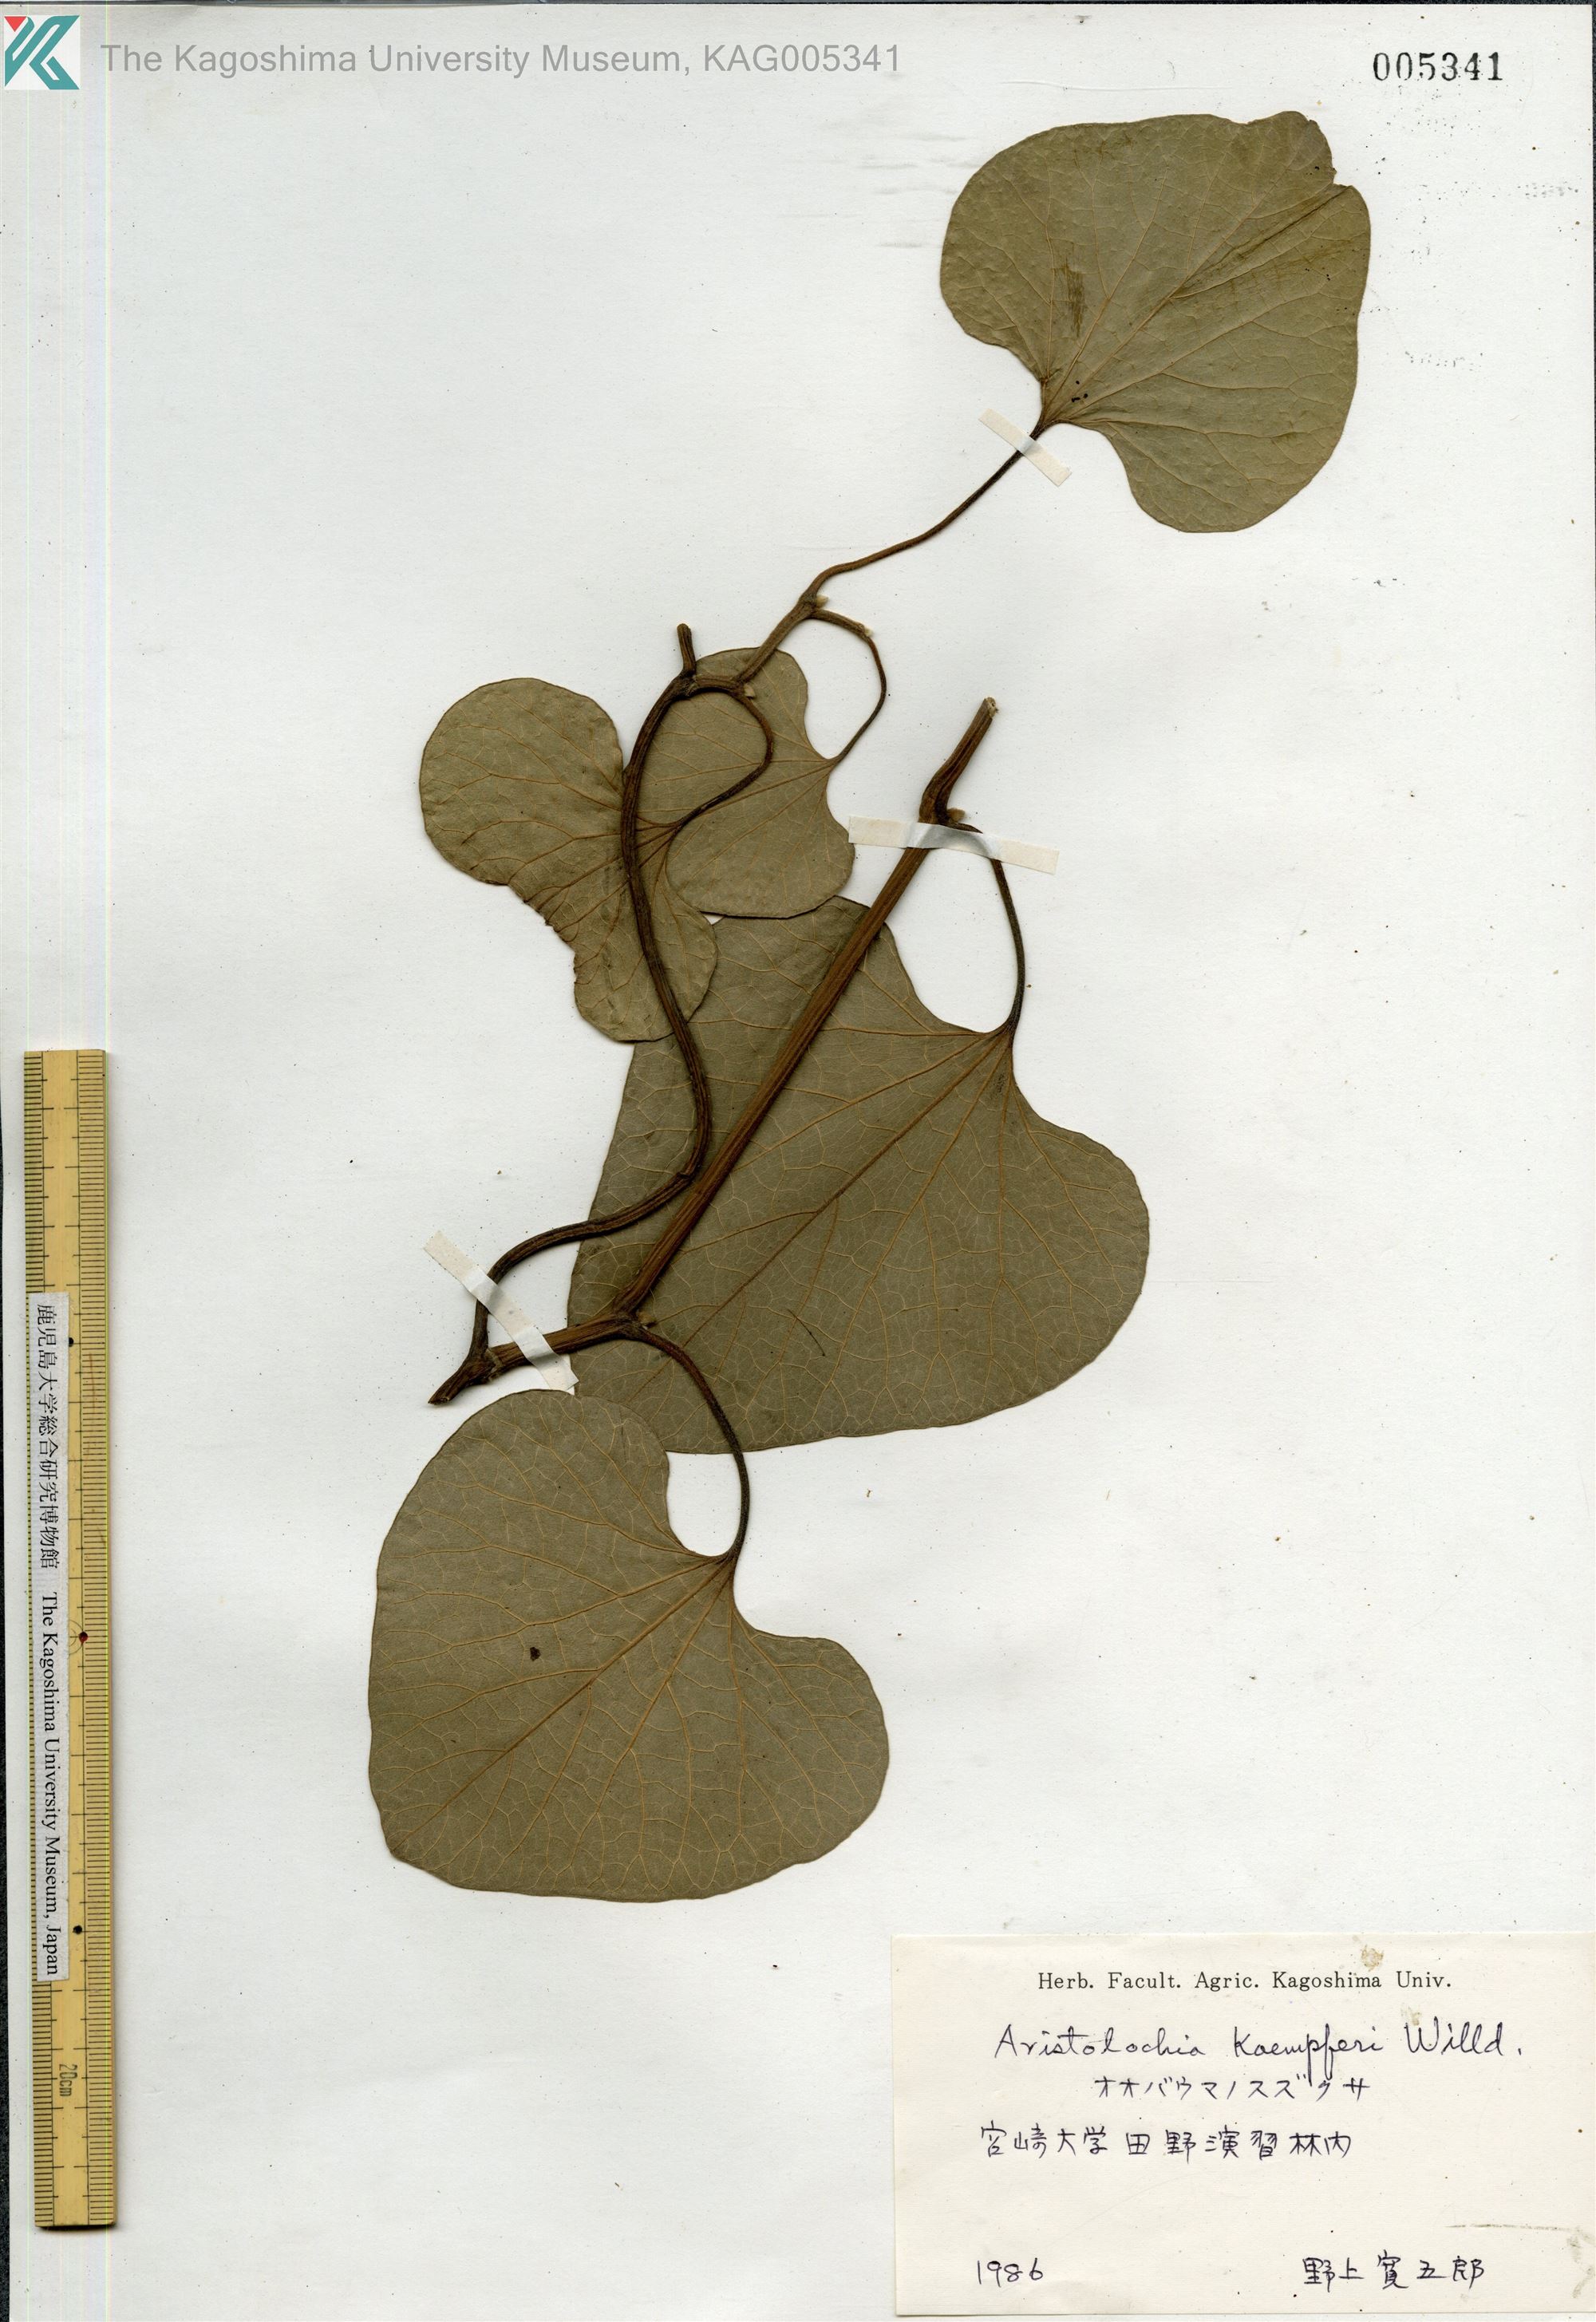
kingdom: Plantae
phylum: Tracheophyta
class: Magnoliopsida
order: Piperales
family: Aristolochiaceae
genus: Isotrema
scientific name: Isotrema kaempferi
